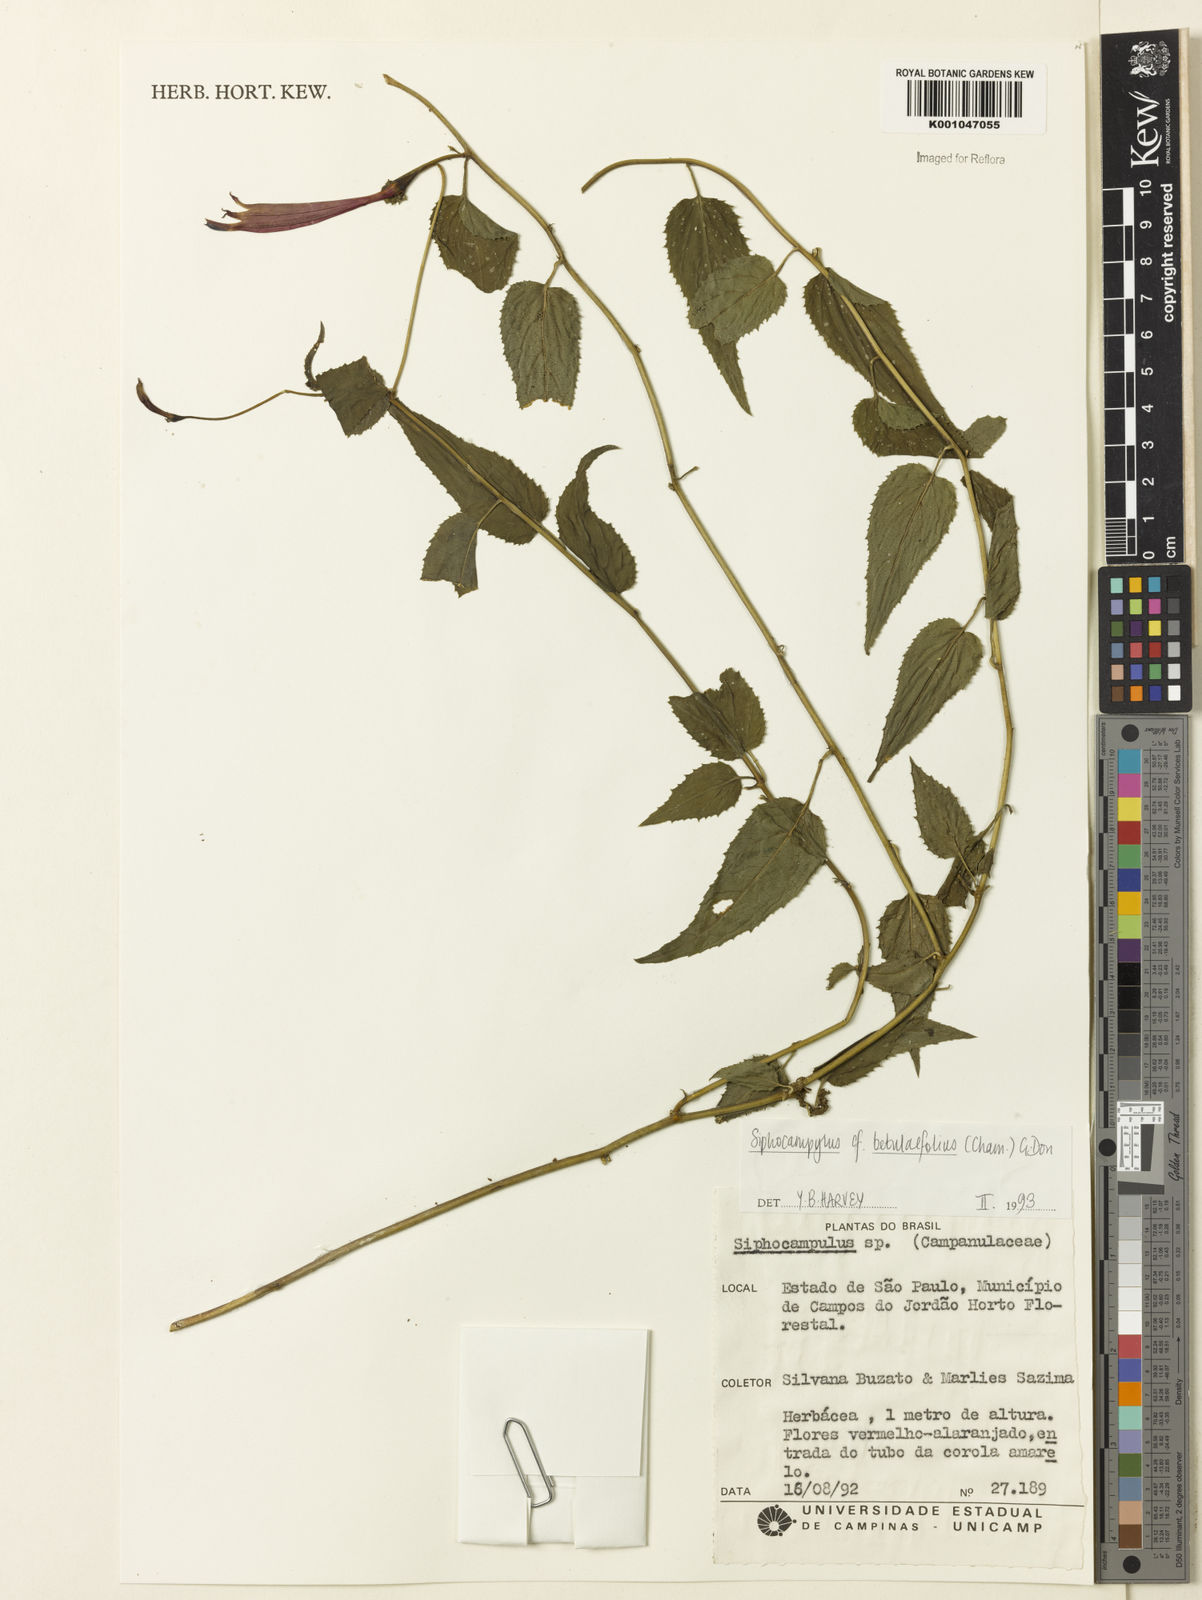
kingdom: Plantae
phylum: Tracheophyta
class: Magnoliopsida
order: Asterales
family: Campanulaceae
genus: Siphocampylus
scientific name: Siphocampylus betulifolius
